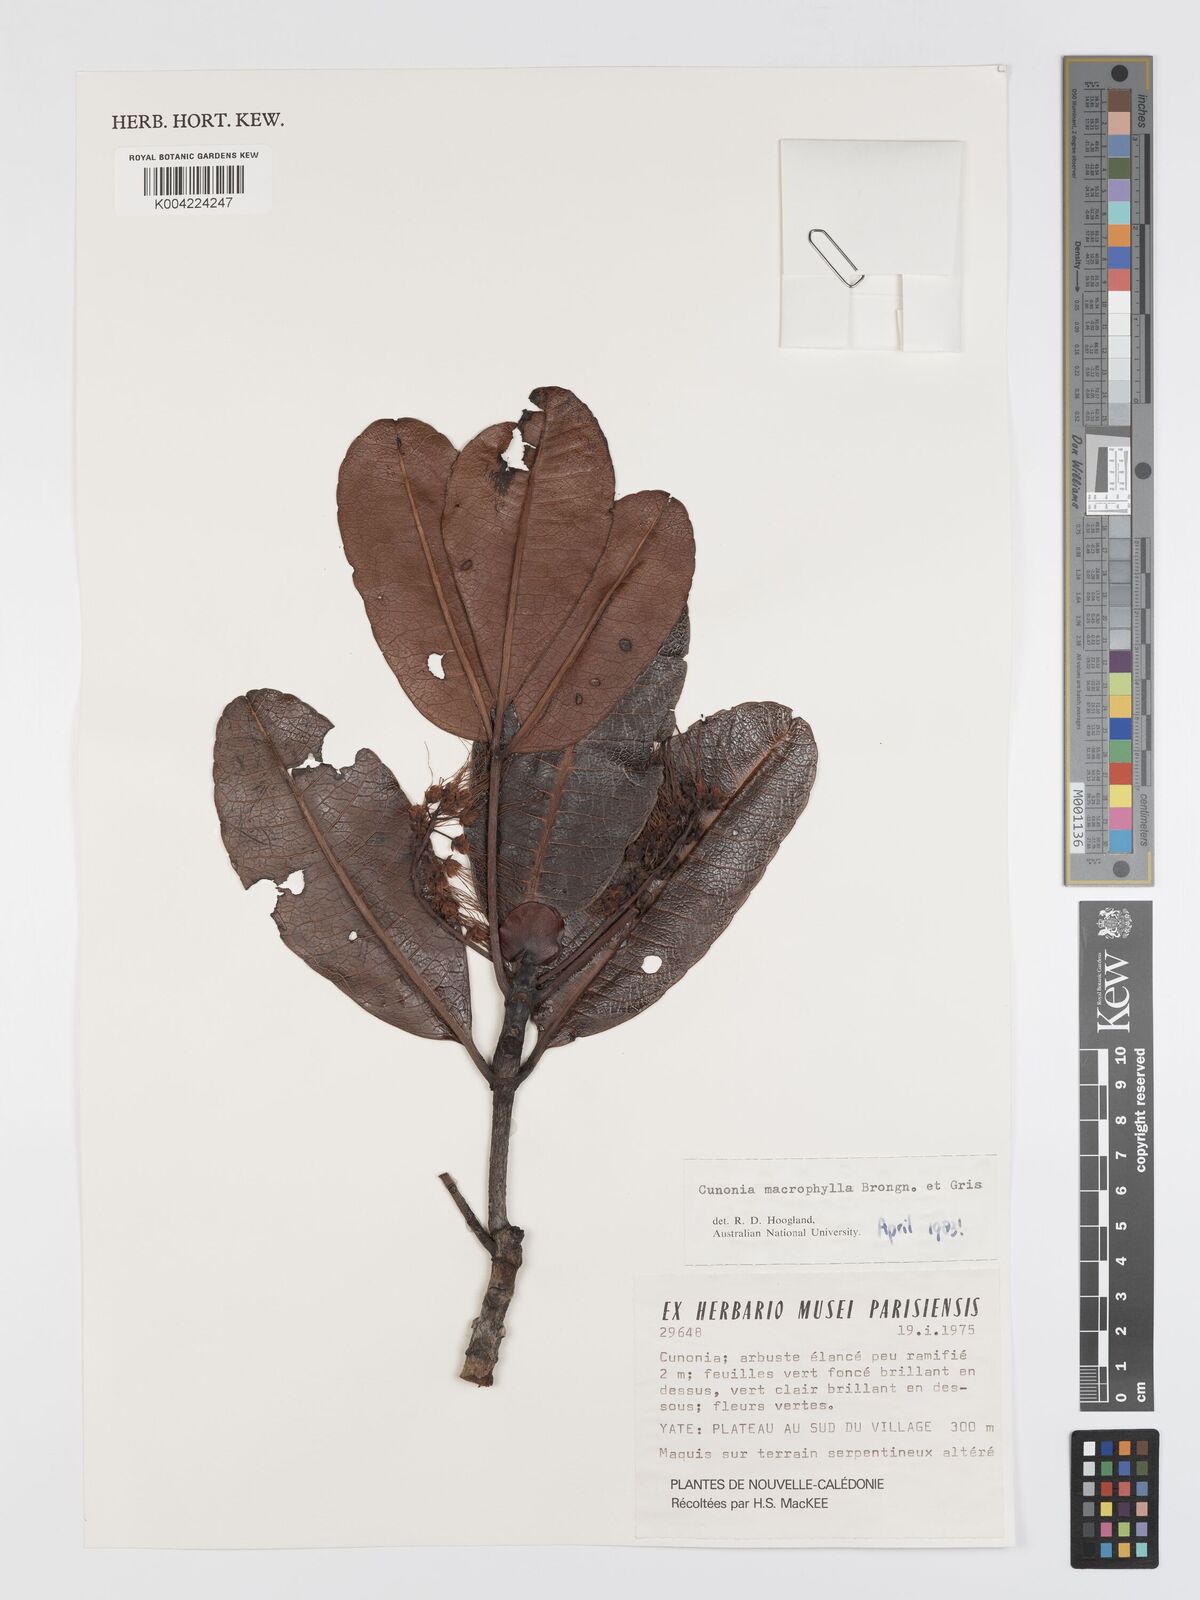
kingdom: Plantae
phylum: Tracheophyta
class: Magnoliopsida
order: Oxalidales
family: Cunoniaceae
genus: Cunonia
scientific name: Cunonia macrophylla
